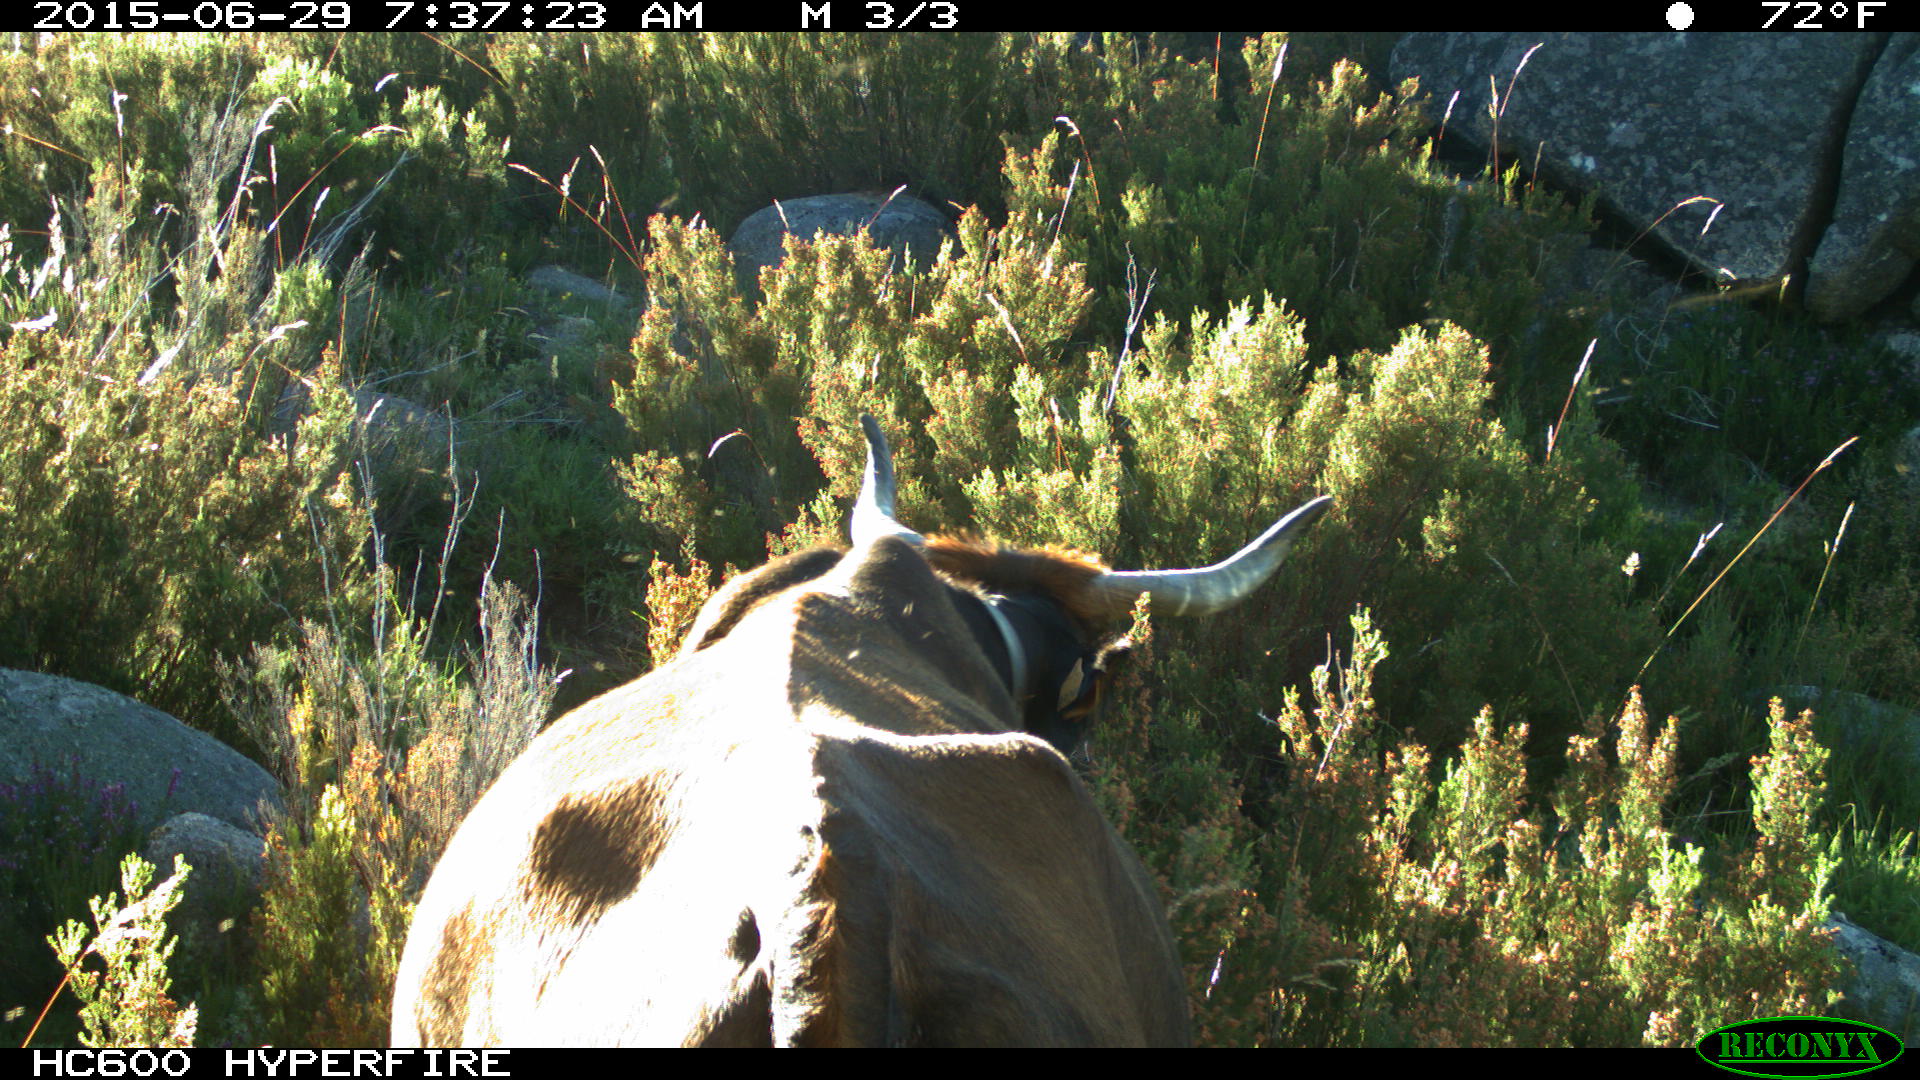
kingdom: Animalia
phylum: Chordata
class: Mammalia
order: Artiodactyla
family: Bovidae
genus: Bos
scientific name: Bos taurus
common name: Domesticated cattle
